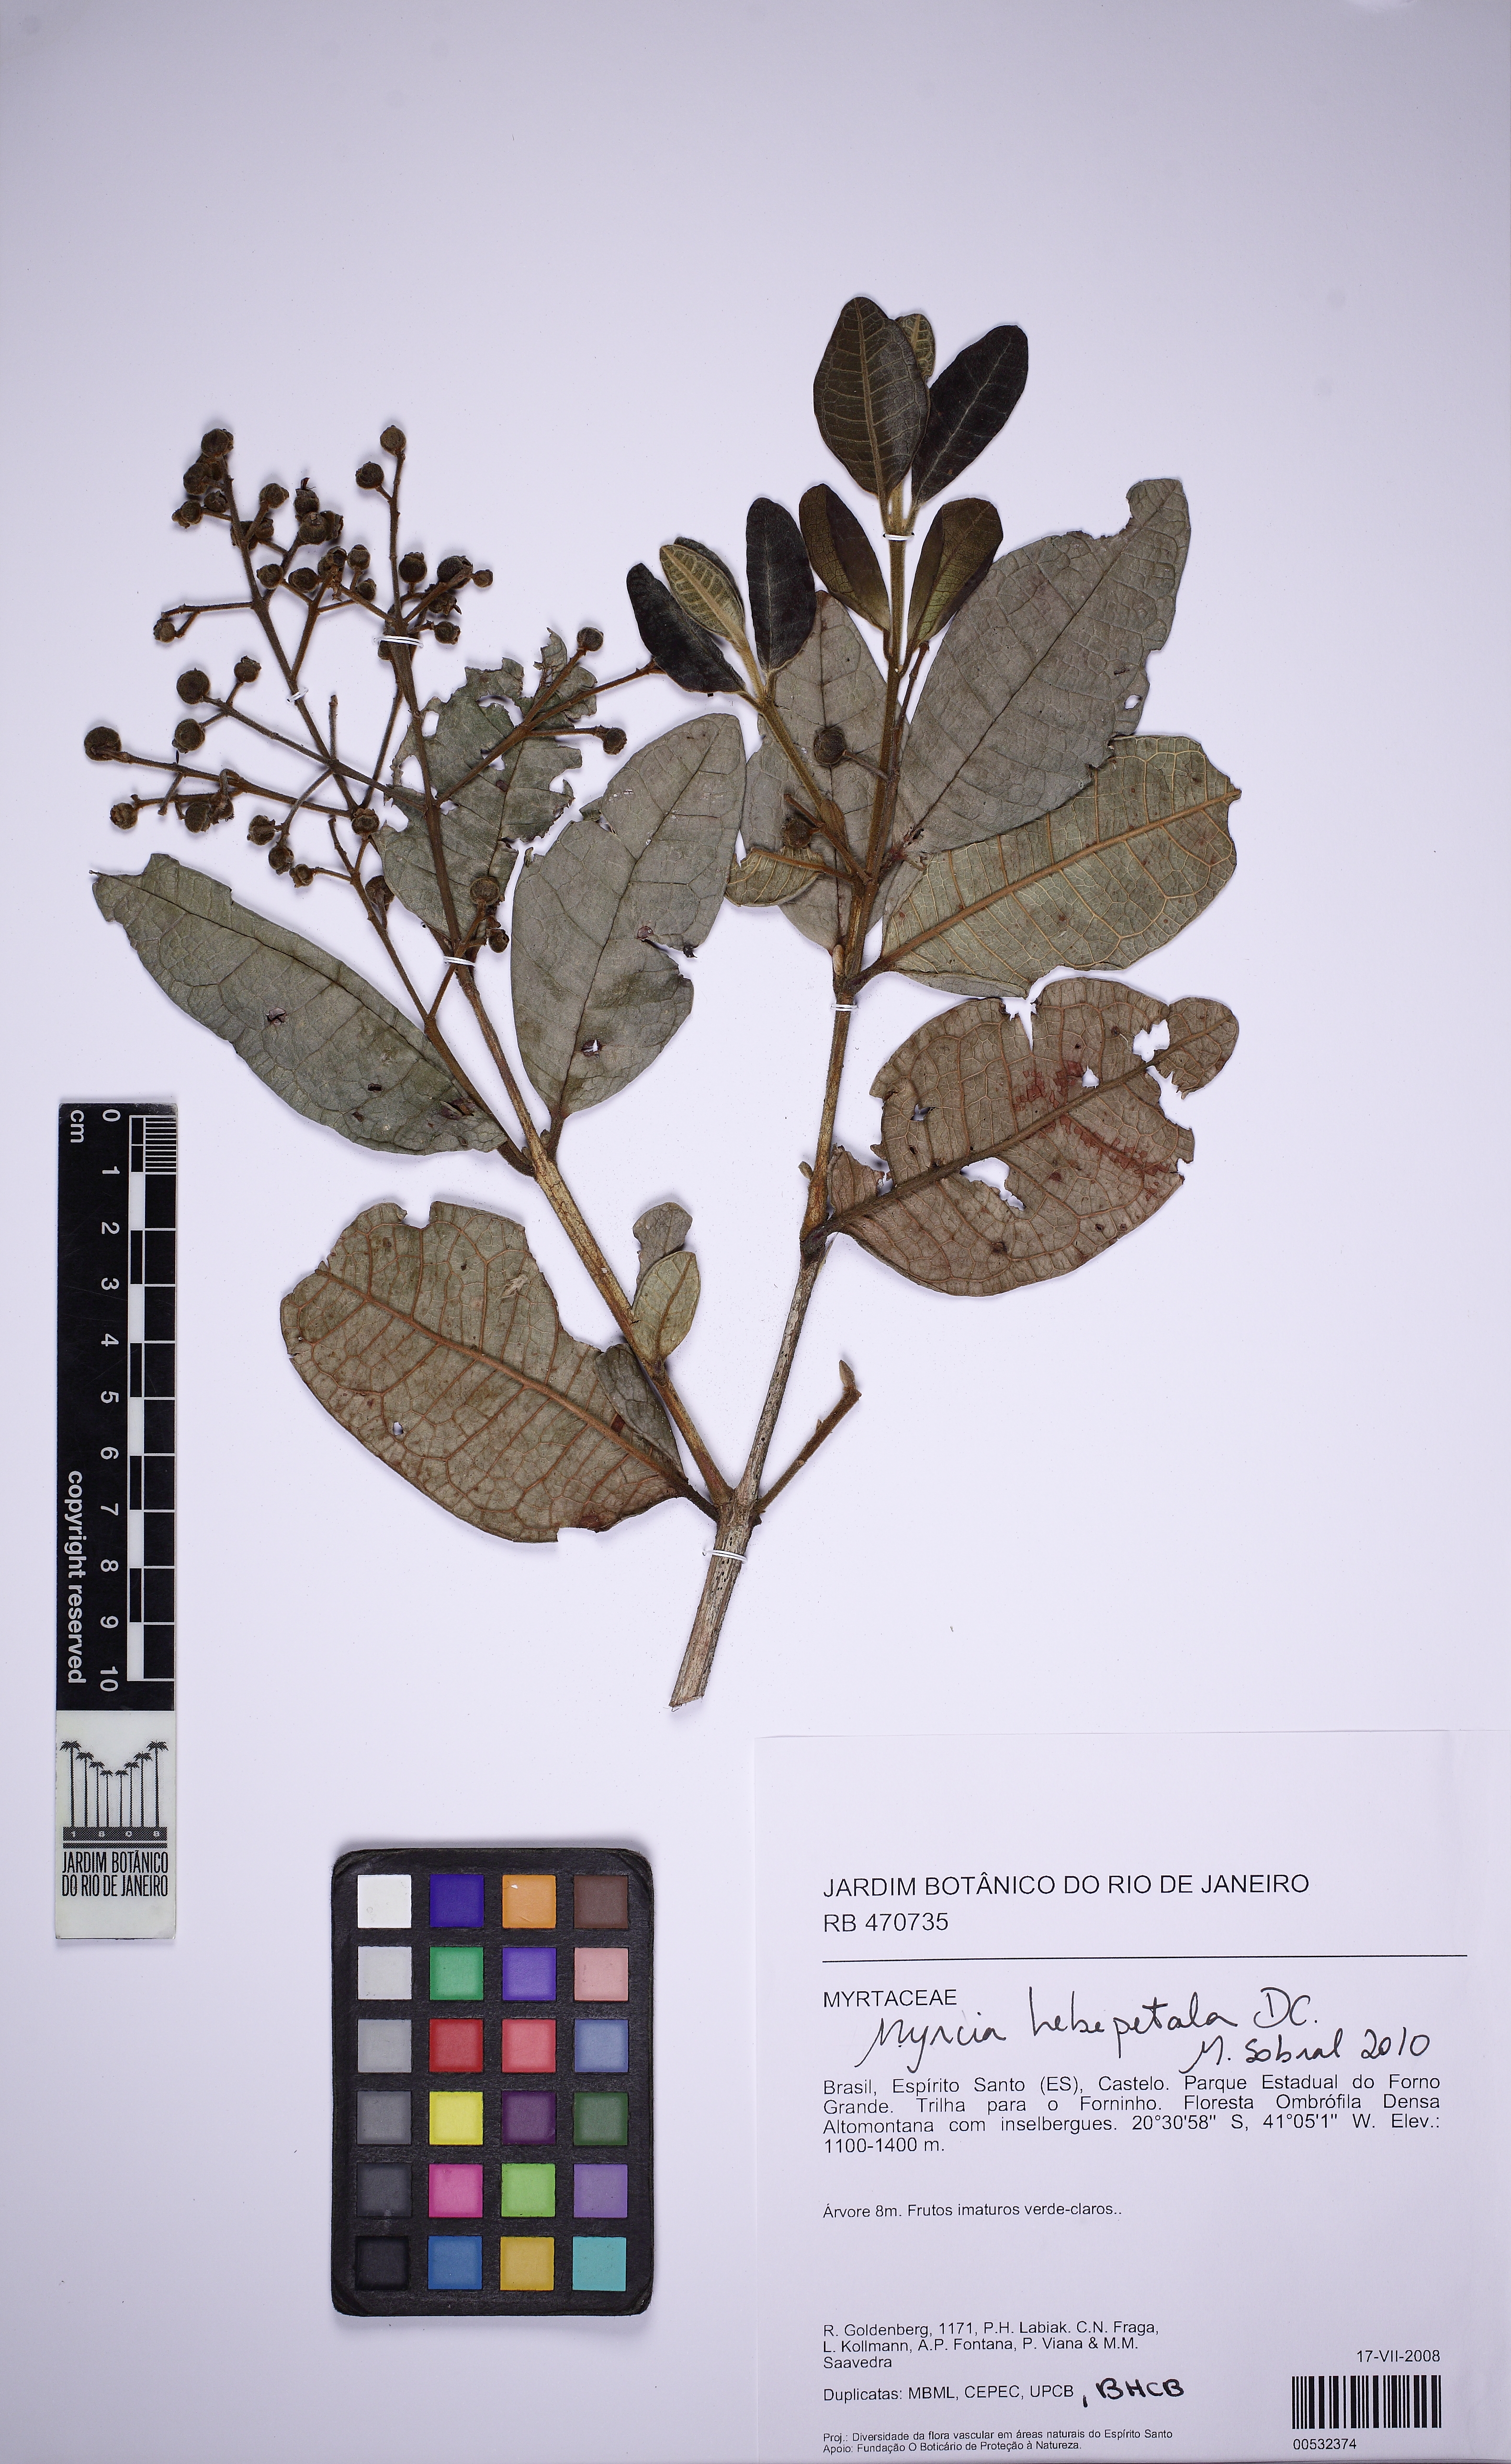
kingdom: Plantae
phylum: Tracheophyta
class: Magnoliopsida
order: Myrtales
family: Myrtaceae
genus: Myrcia
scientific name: Myrcia hebepetala
